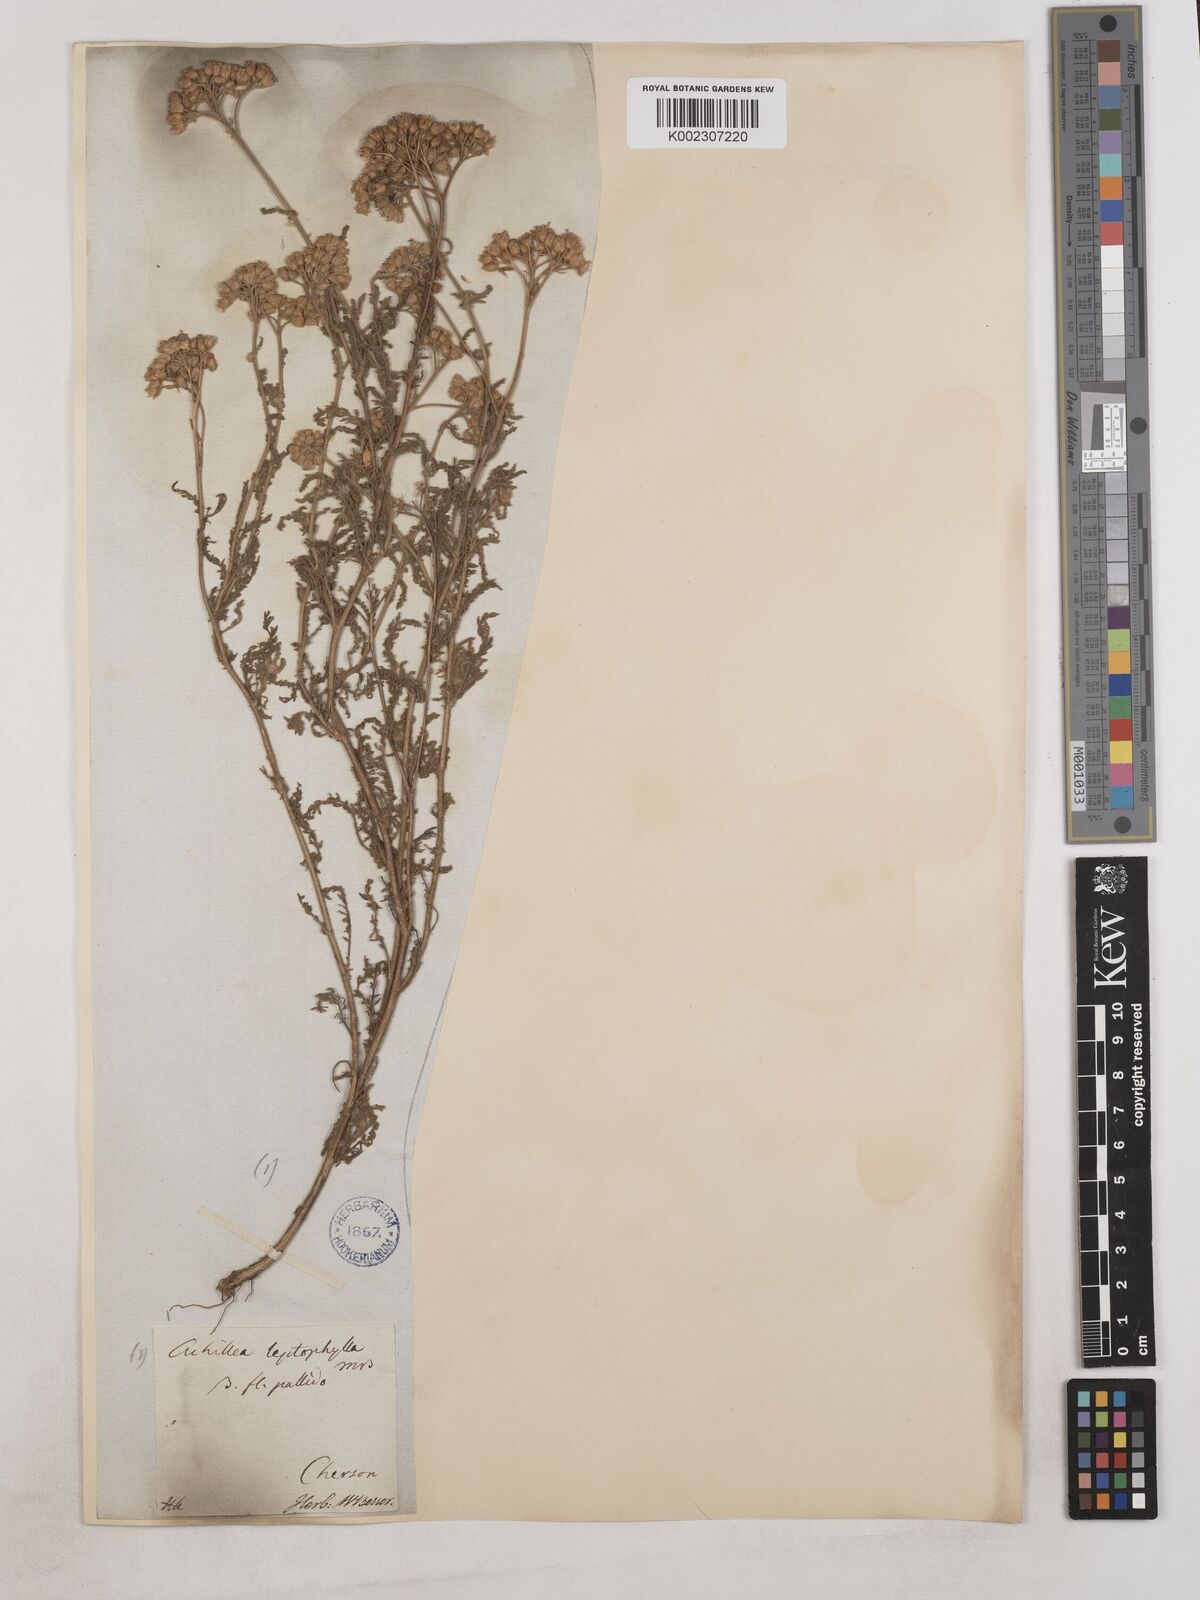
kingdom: Plantae
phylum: Tracheophyta
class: Magnoliopsida
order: Asterales
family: Asteraceae
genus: Achillea
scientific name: Achillea leptophylla
